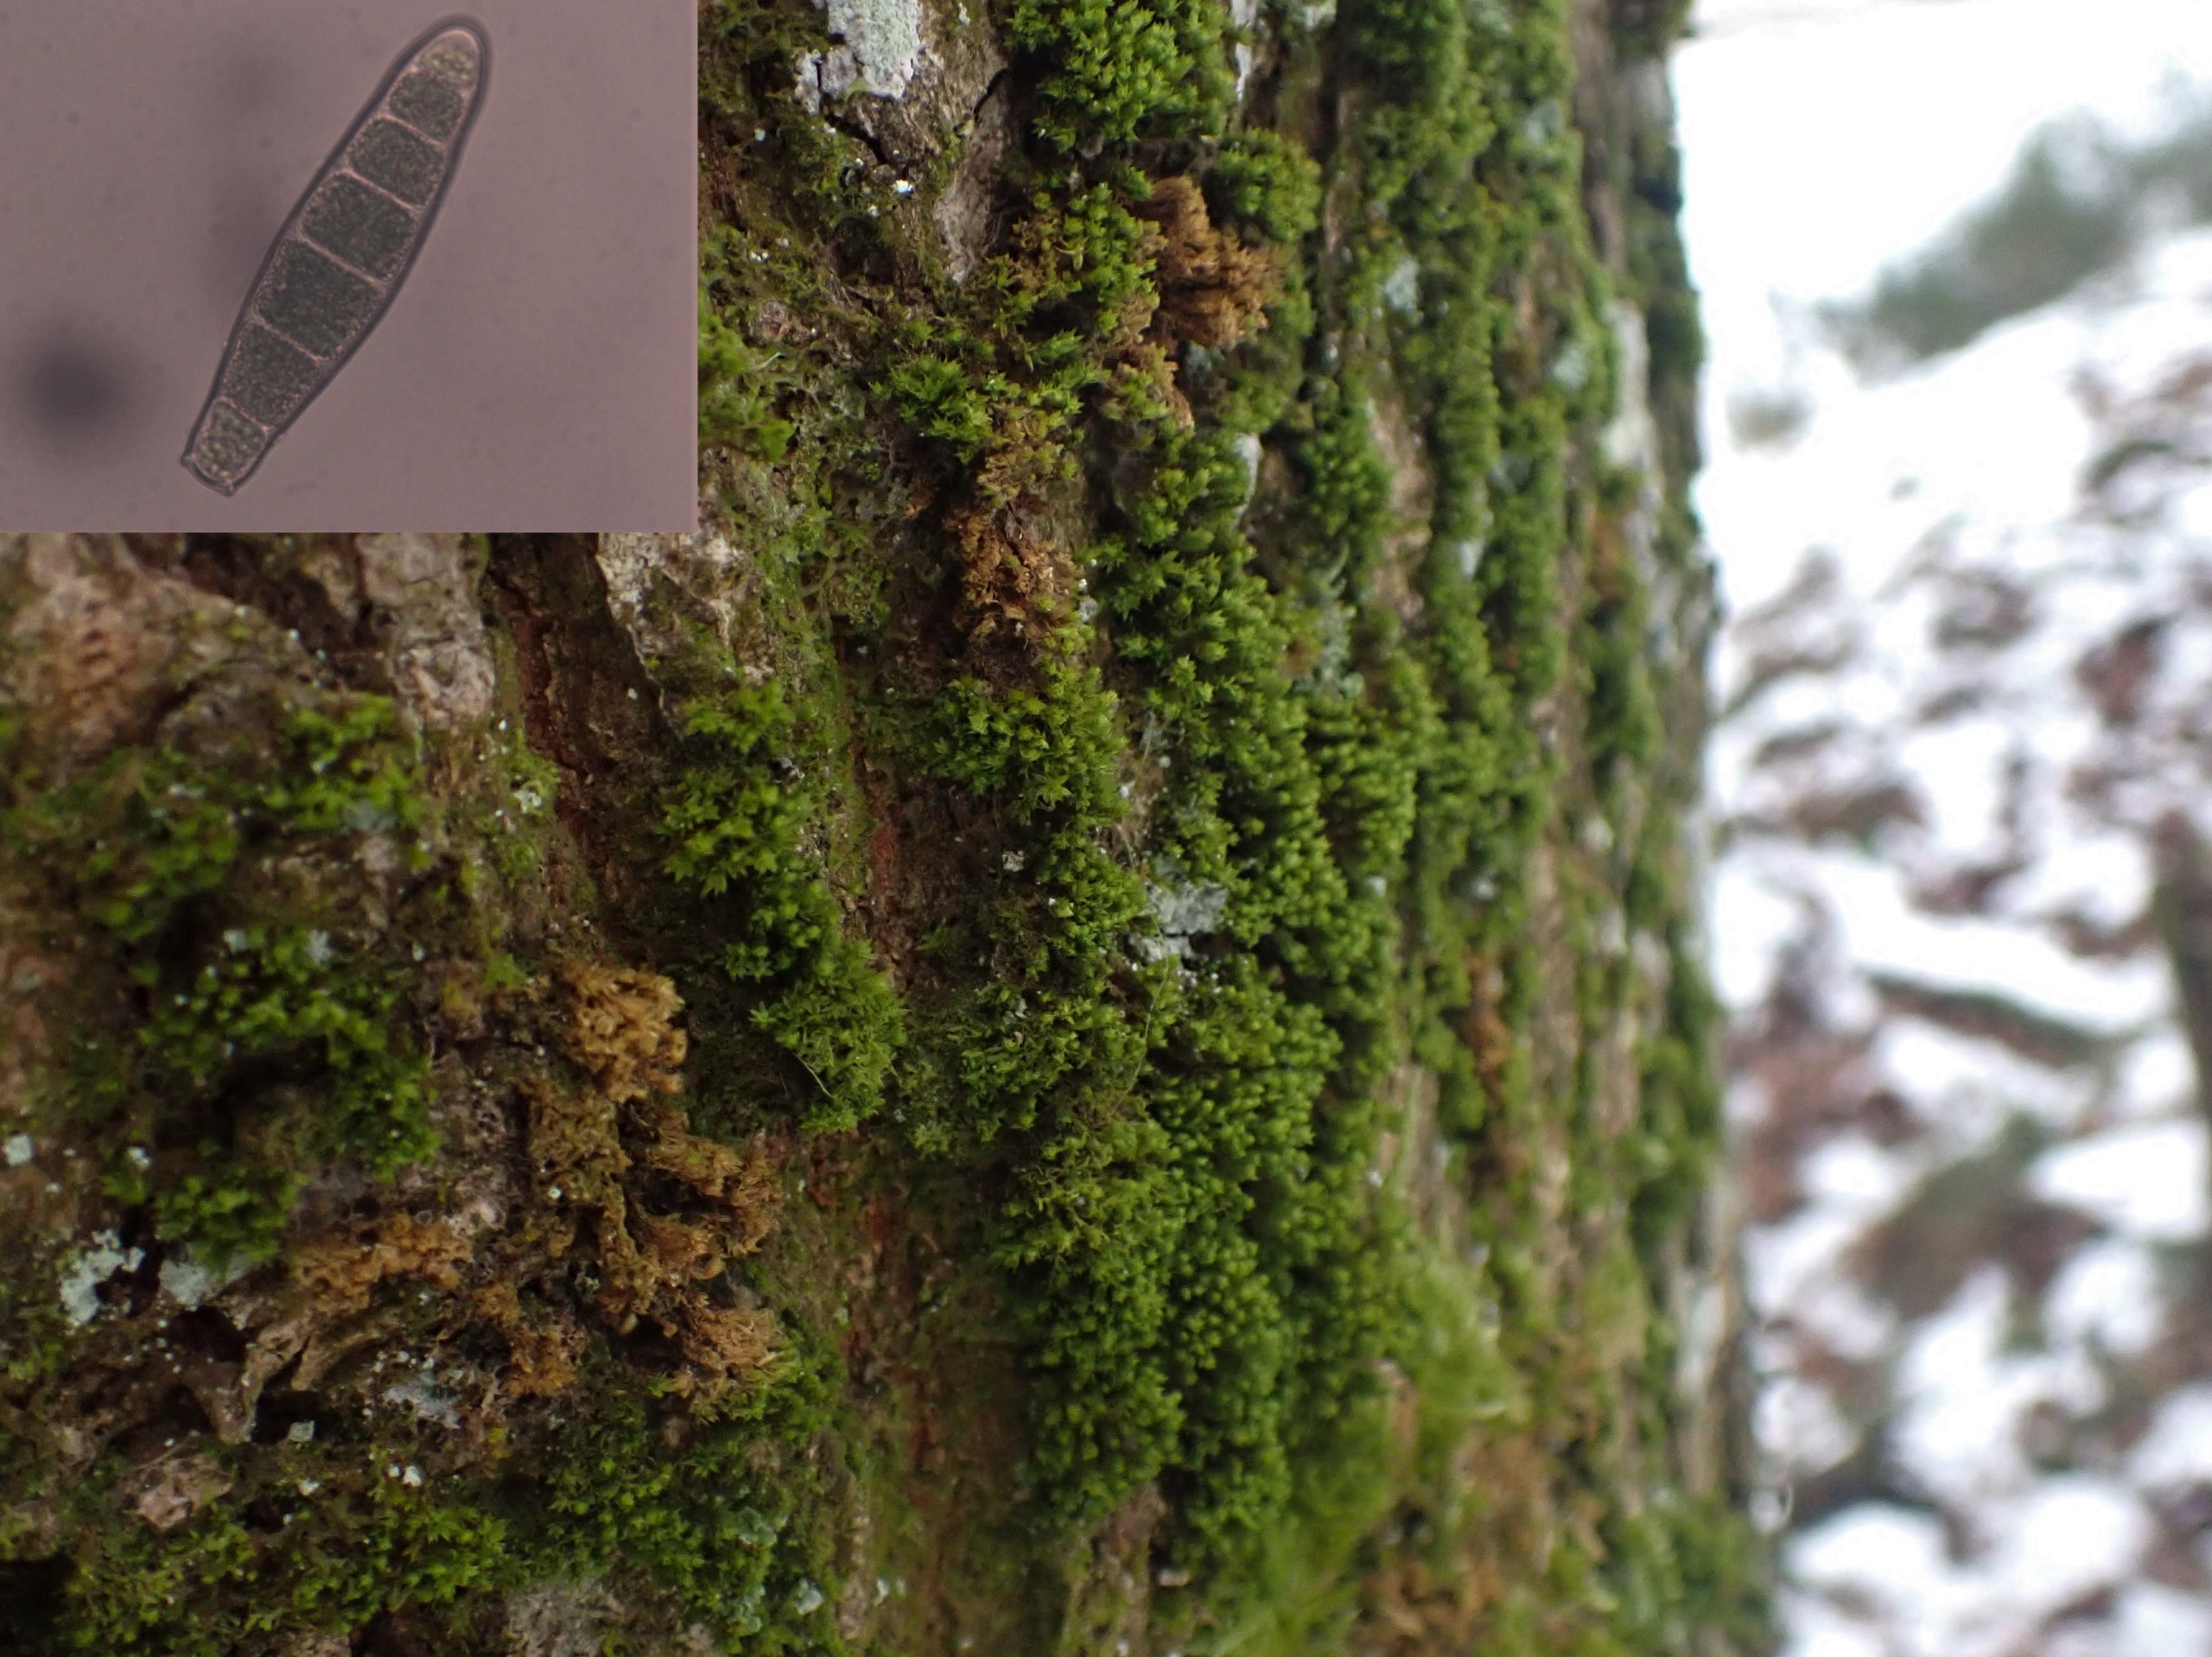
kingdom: Plantae
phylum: Bryophyta
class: Bryopsida
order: Orthotrichales
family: Orthotrichaceae
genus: Zygodon
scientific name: Zygodon conoideus
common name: Tand-køllemos
